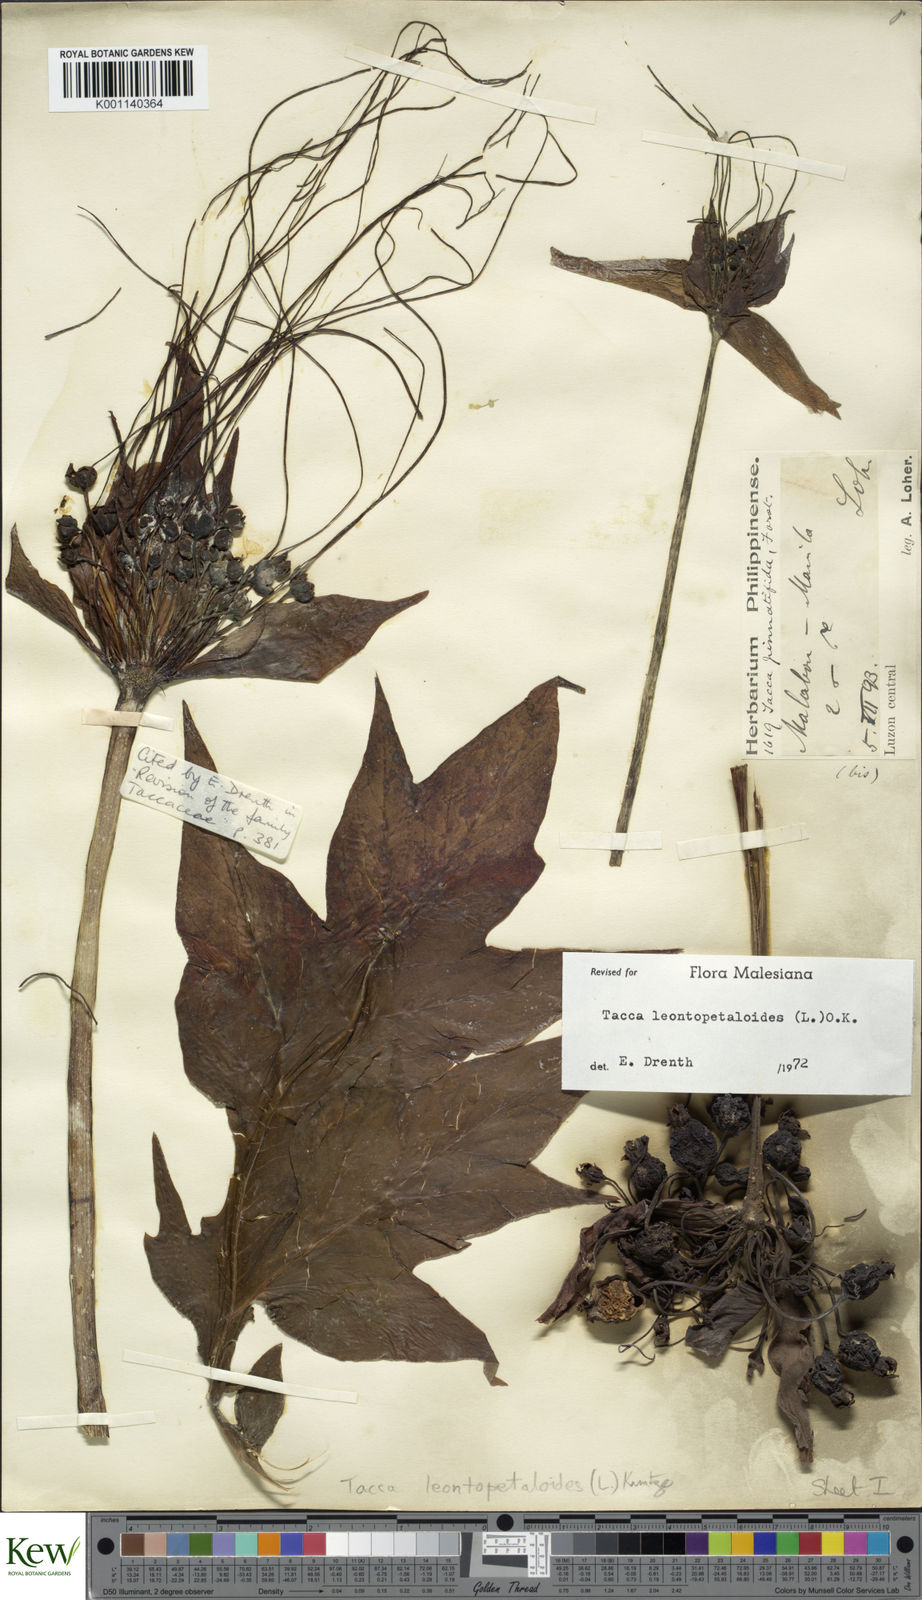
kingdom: Plantae
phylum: Tracheophyta
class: Liliopsida
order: Dioscoreales
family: Dioscoreaceae
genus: Tacca
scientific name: Tacca leontopetaloides
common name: Arrowroot
